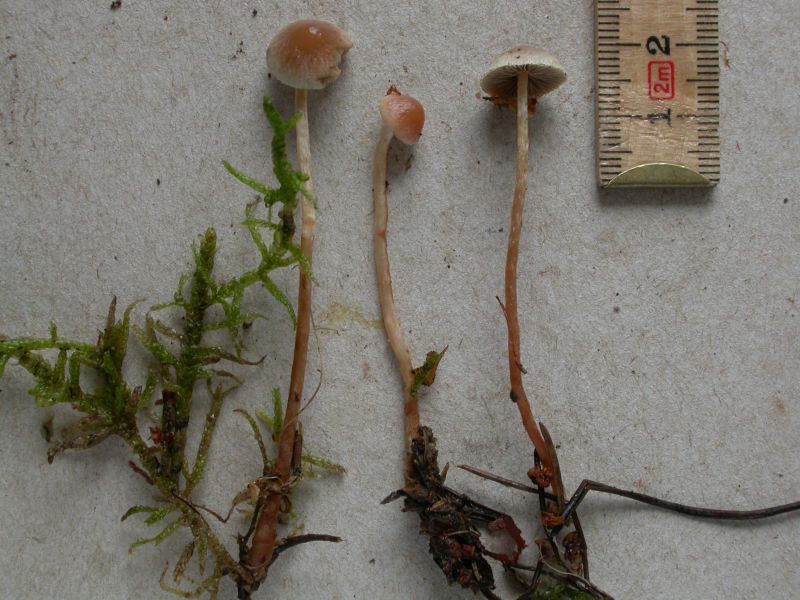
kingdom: Fungi
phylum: Basidiomycota
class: Agaricomycetes
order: Agaricales
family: Strophariaceae
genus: Hypholoma
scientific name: Hypholoma polytrichi
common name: jomfruhår-svovlhat
